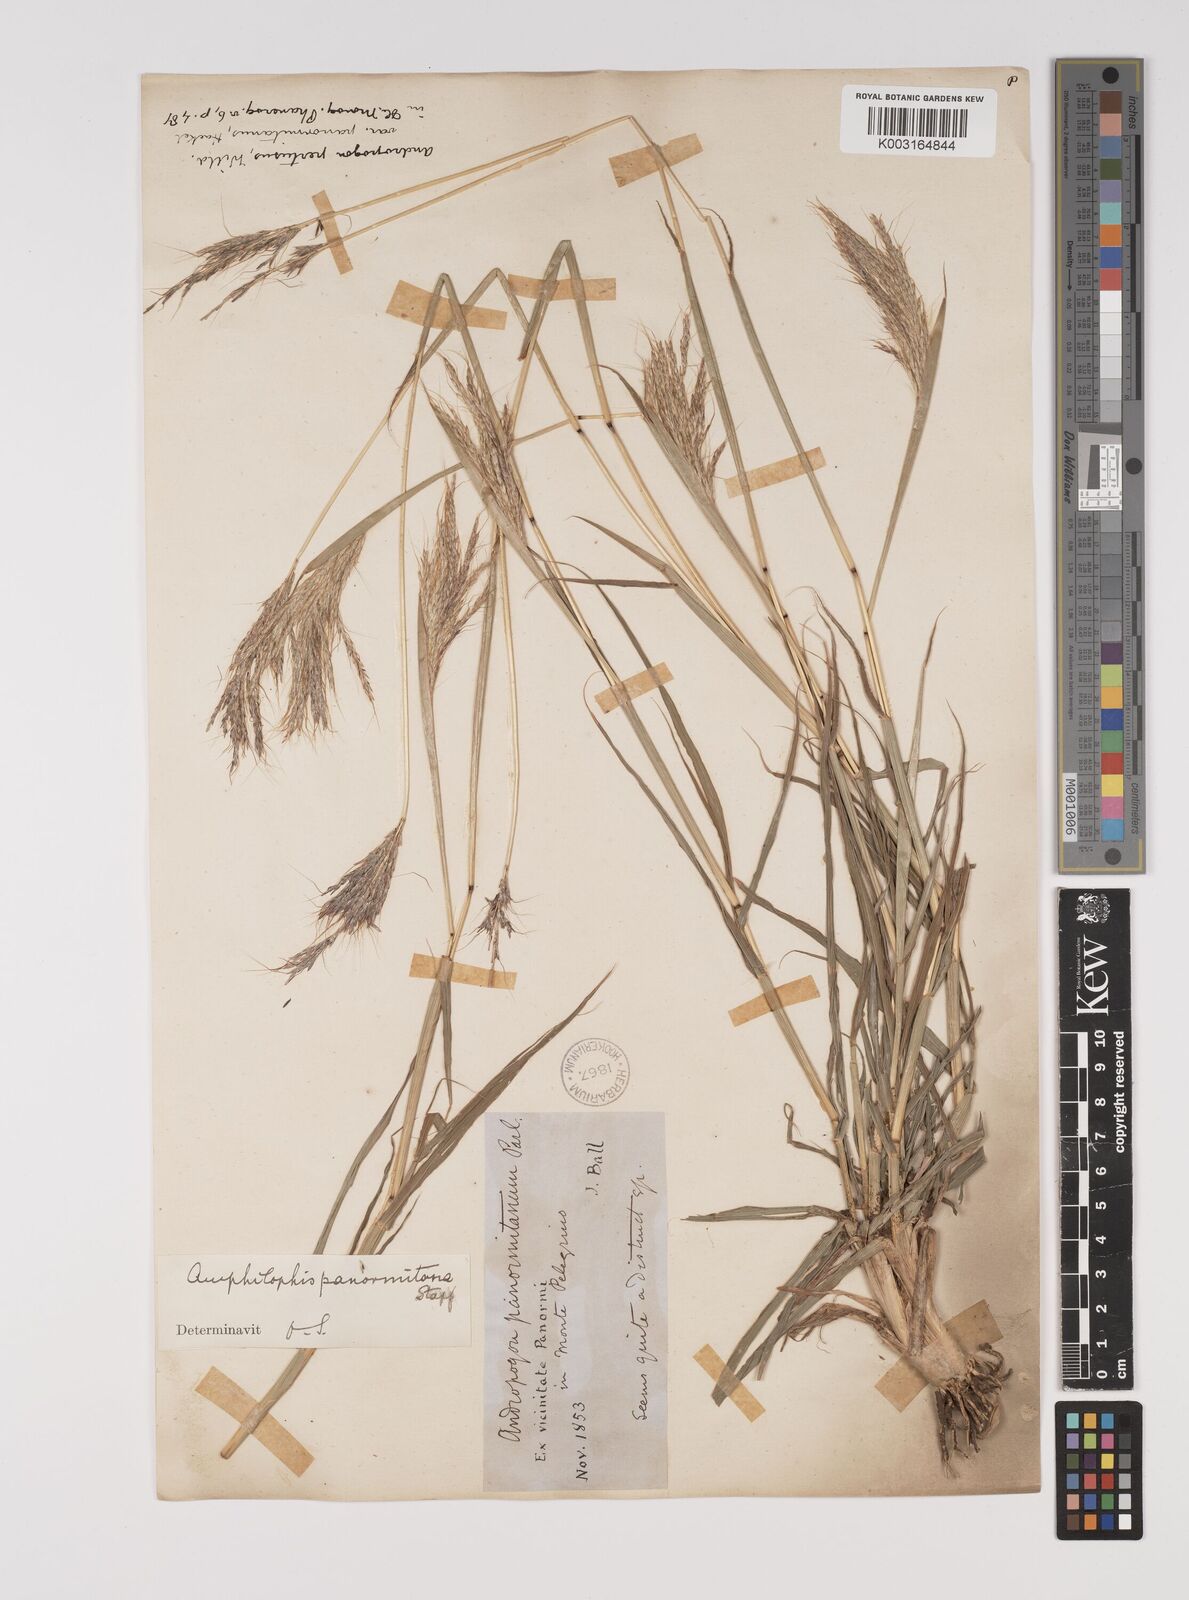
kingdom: Plantae
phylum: Tracheophyta
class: Liliopsida
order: Poales
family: Poaceae
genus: Bothriochloa
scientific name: Bothriochloa insculpta
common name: Creeping-bluegrass
